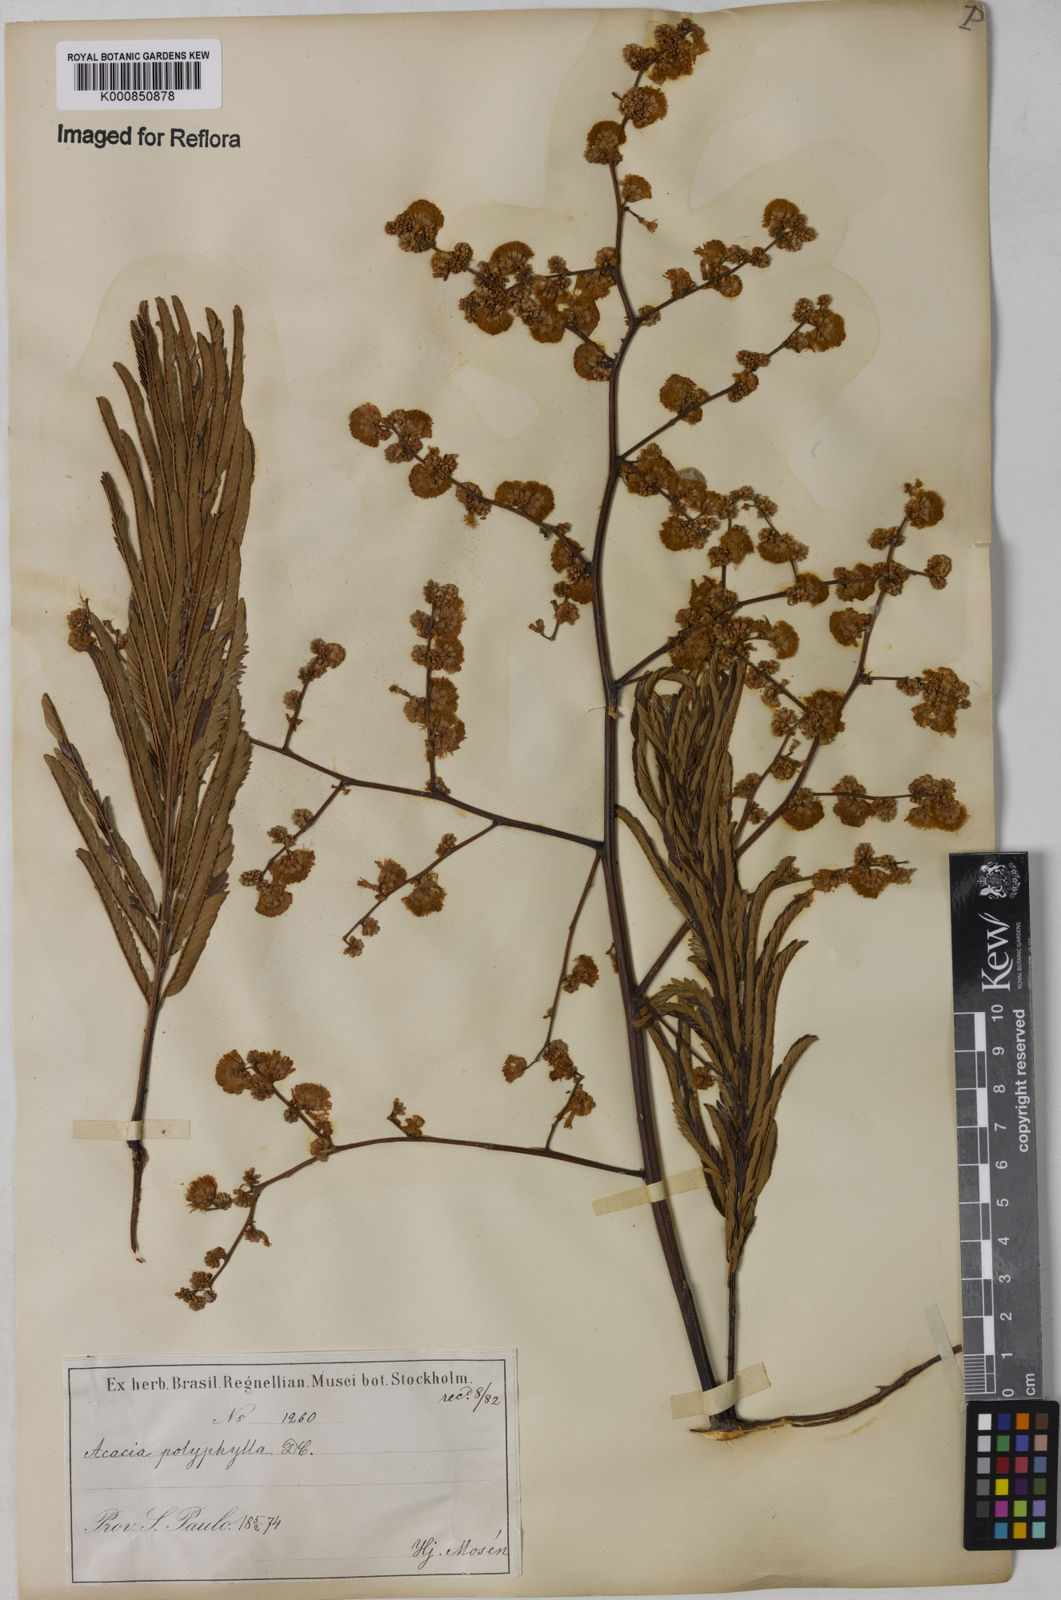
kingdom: Plantae
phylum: Tracheophyta
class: Magnoliopsida
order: Fabales
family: Fabaceae
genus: Senegalia
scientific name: Senegalia polyphylla
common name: White-tamarind
